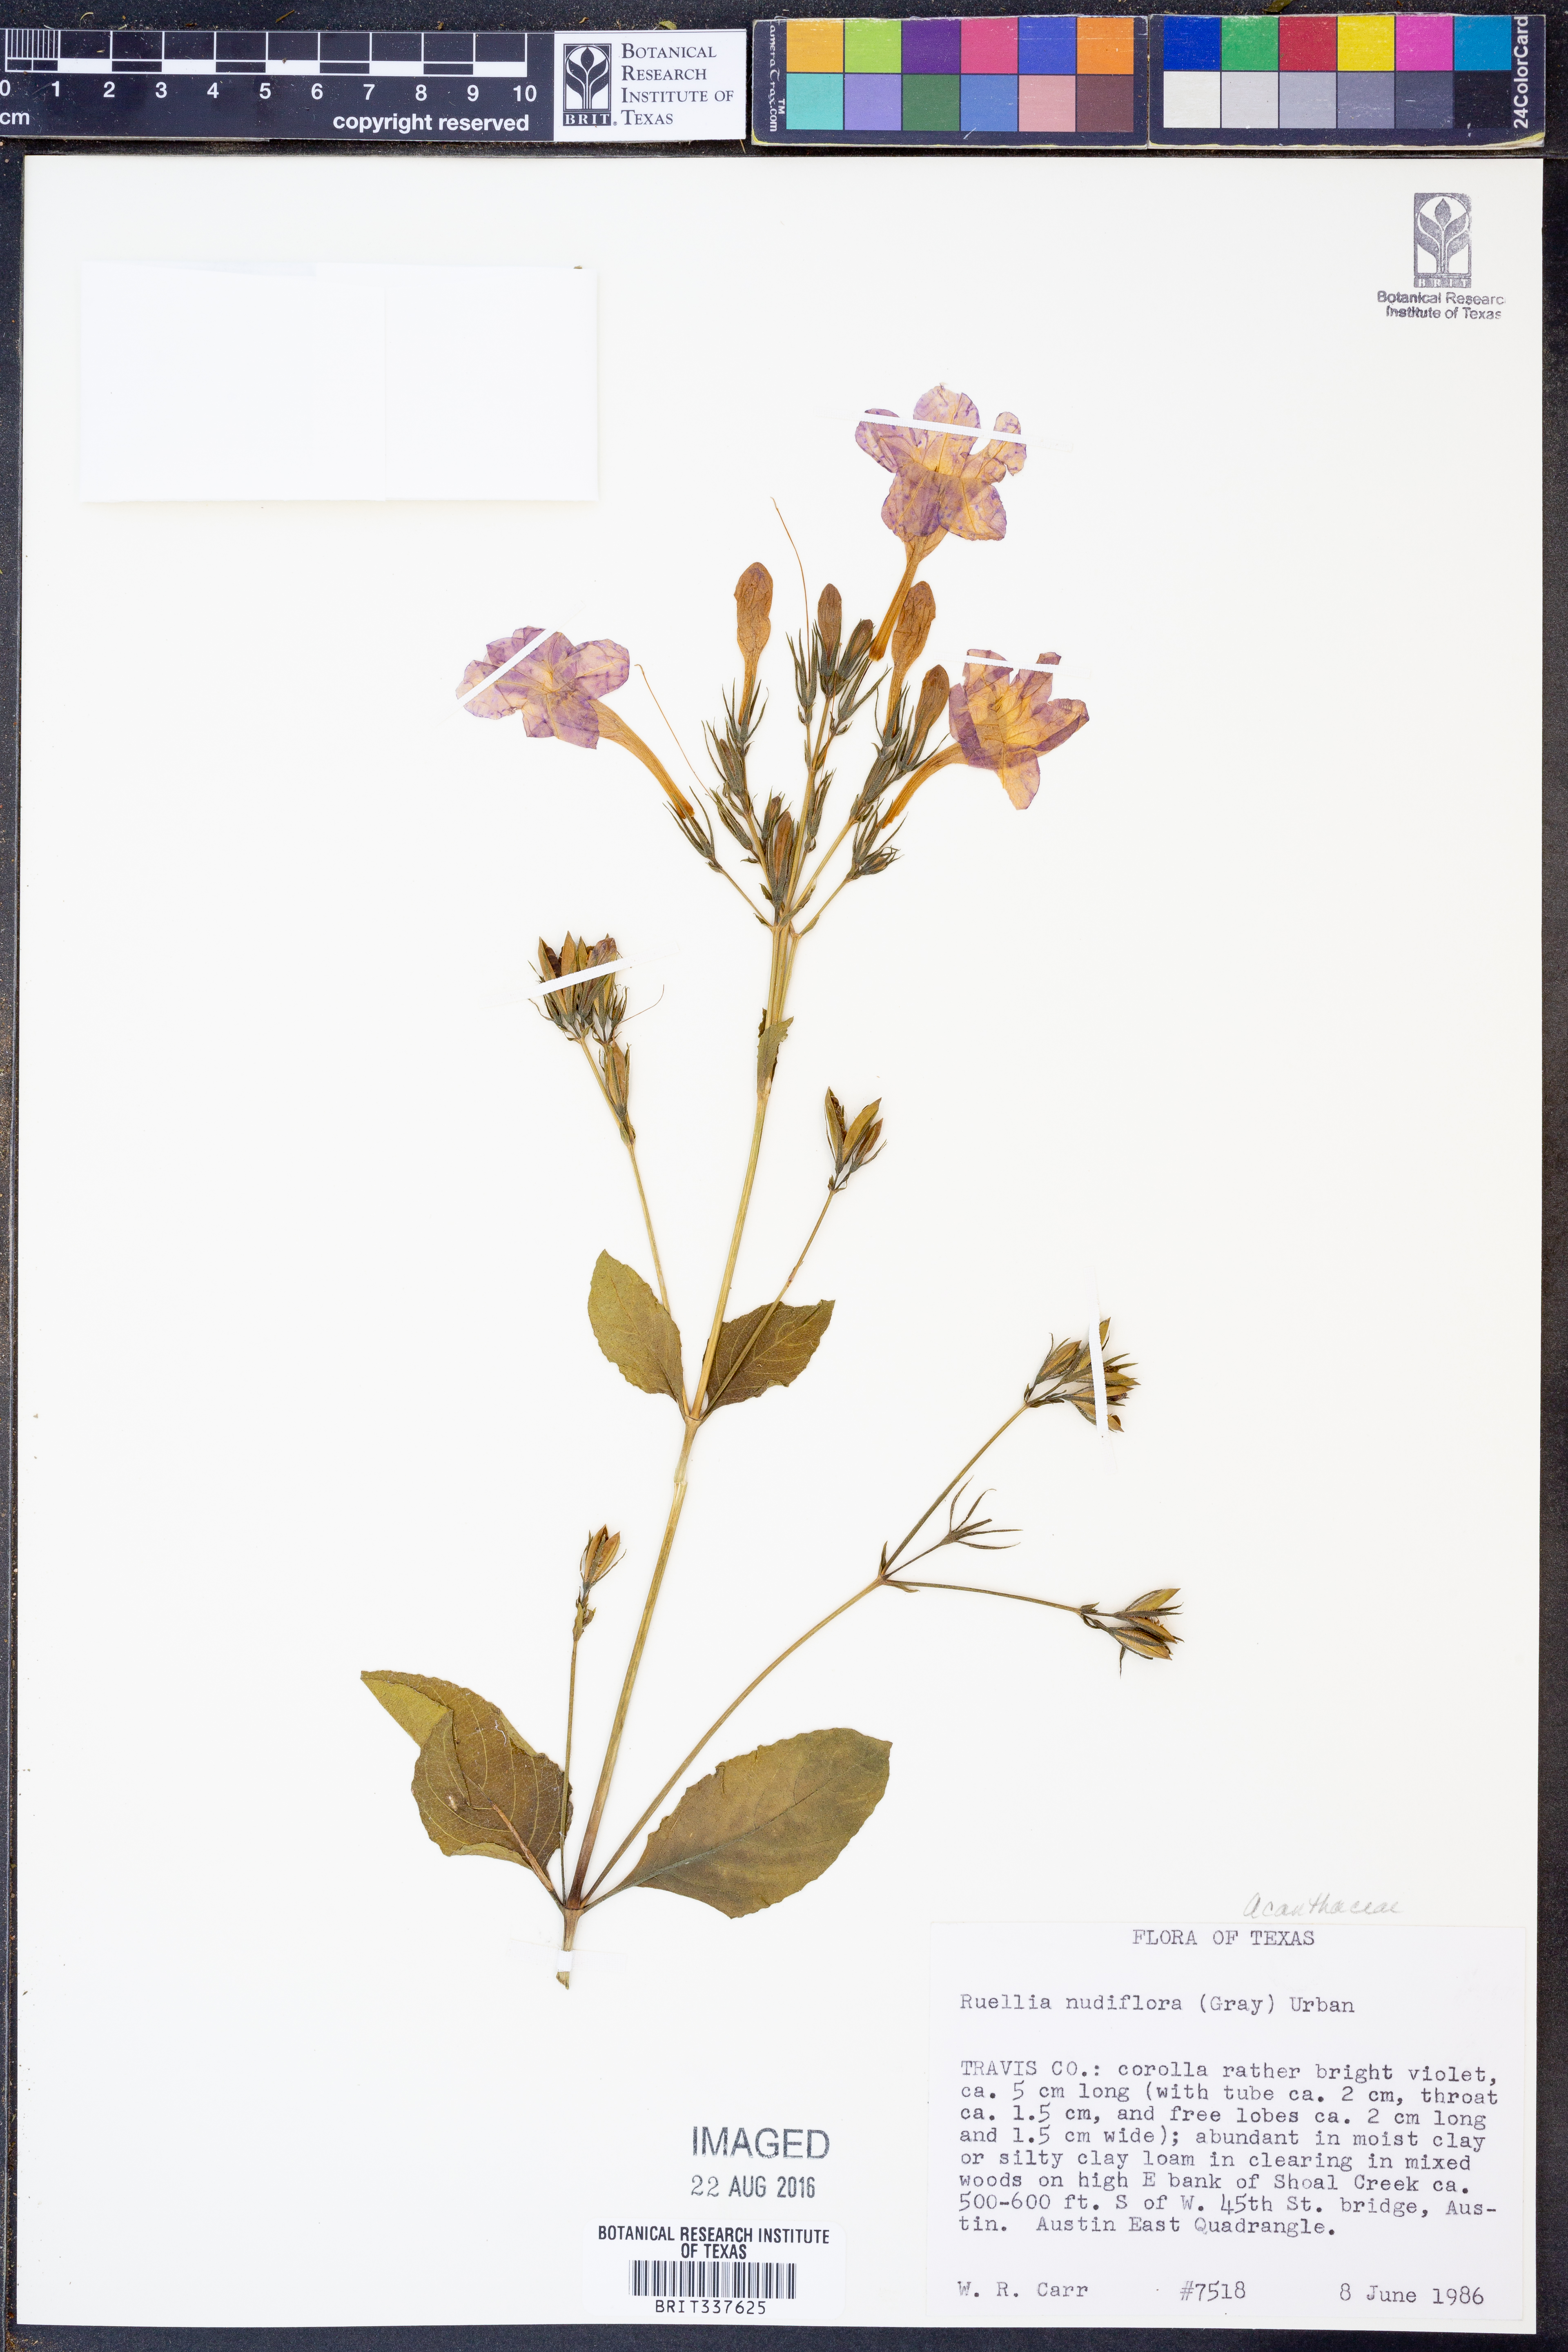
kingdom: Plantae
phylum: Tracheophyta
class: Magnoliopsida
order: Lamiales
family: Acanthaceae
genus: Ruellia
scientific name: Ruellia ciliatiflora
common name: Hairyflower wild petunia
